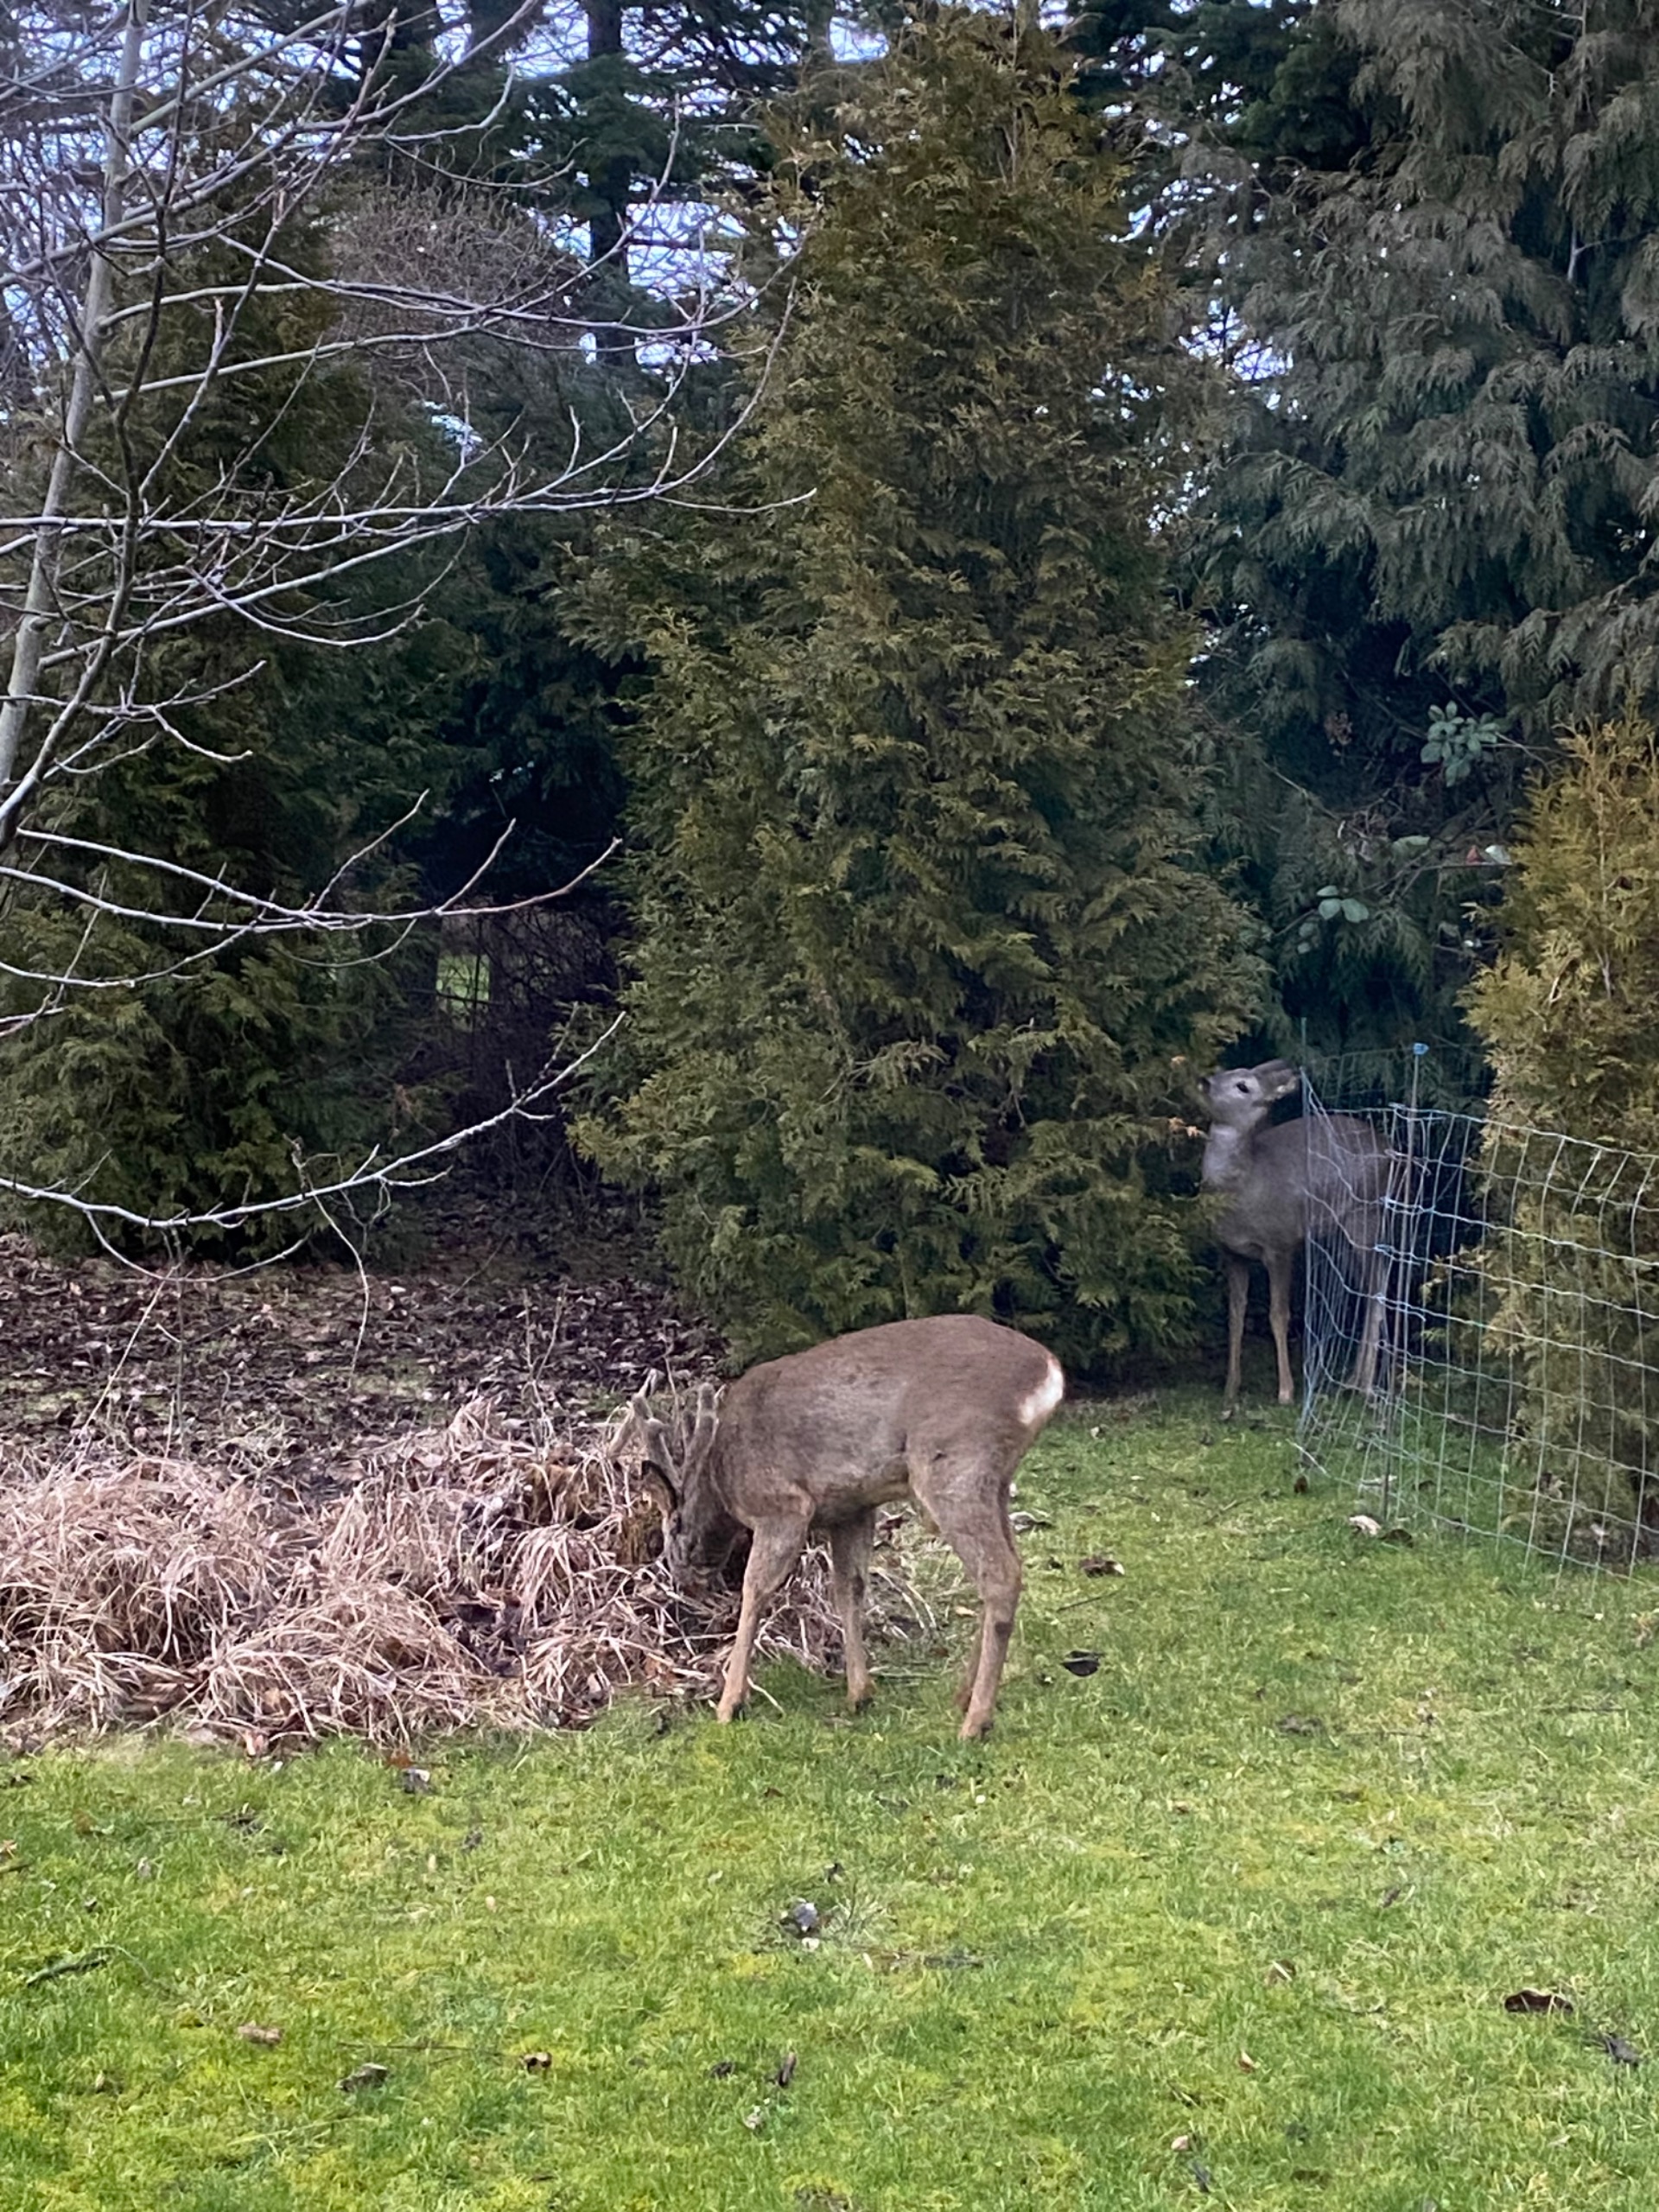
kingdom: Animalia
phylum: Chordata
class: Mammalia
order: Artiodactyla
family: Cervidae
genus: Capreolus
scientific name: Capreolus capreolus
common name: Rådyr
